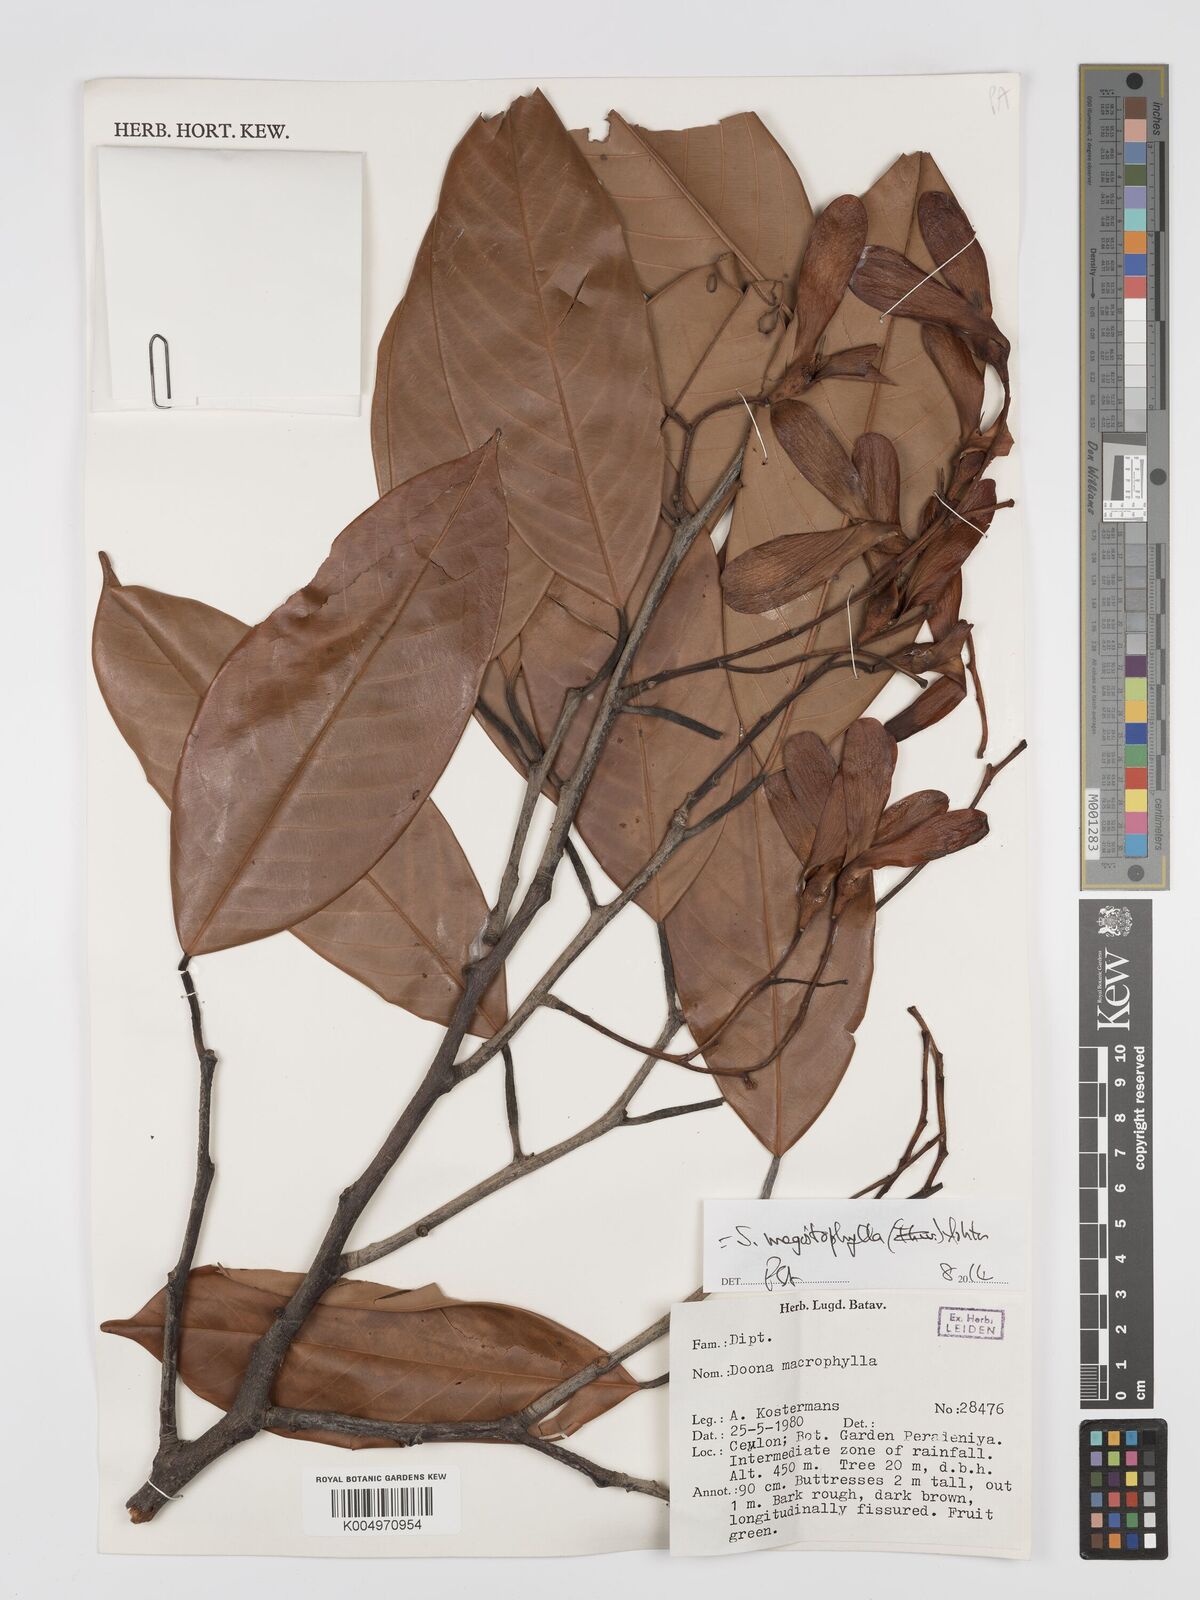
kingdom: Plantae
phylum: Tracheophyta
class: Magnoliopsida
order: Malvales
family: Dipterocarpaceae
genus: Doona
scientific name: Doona macrophylla
